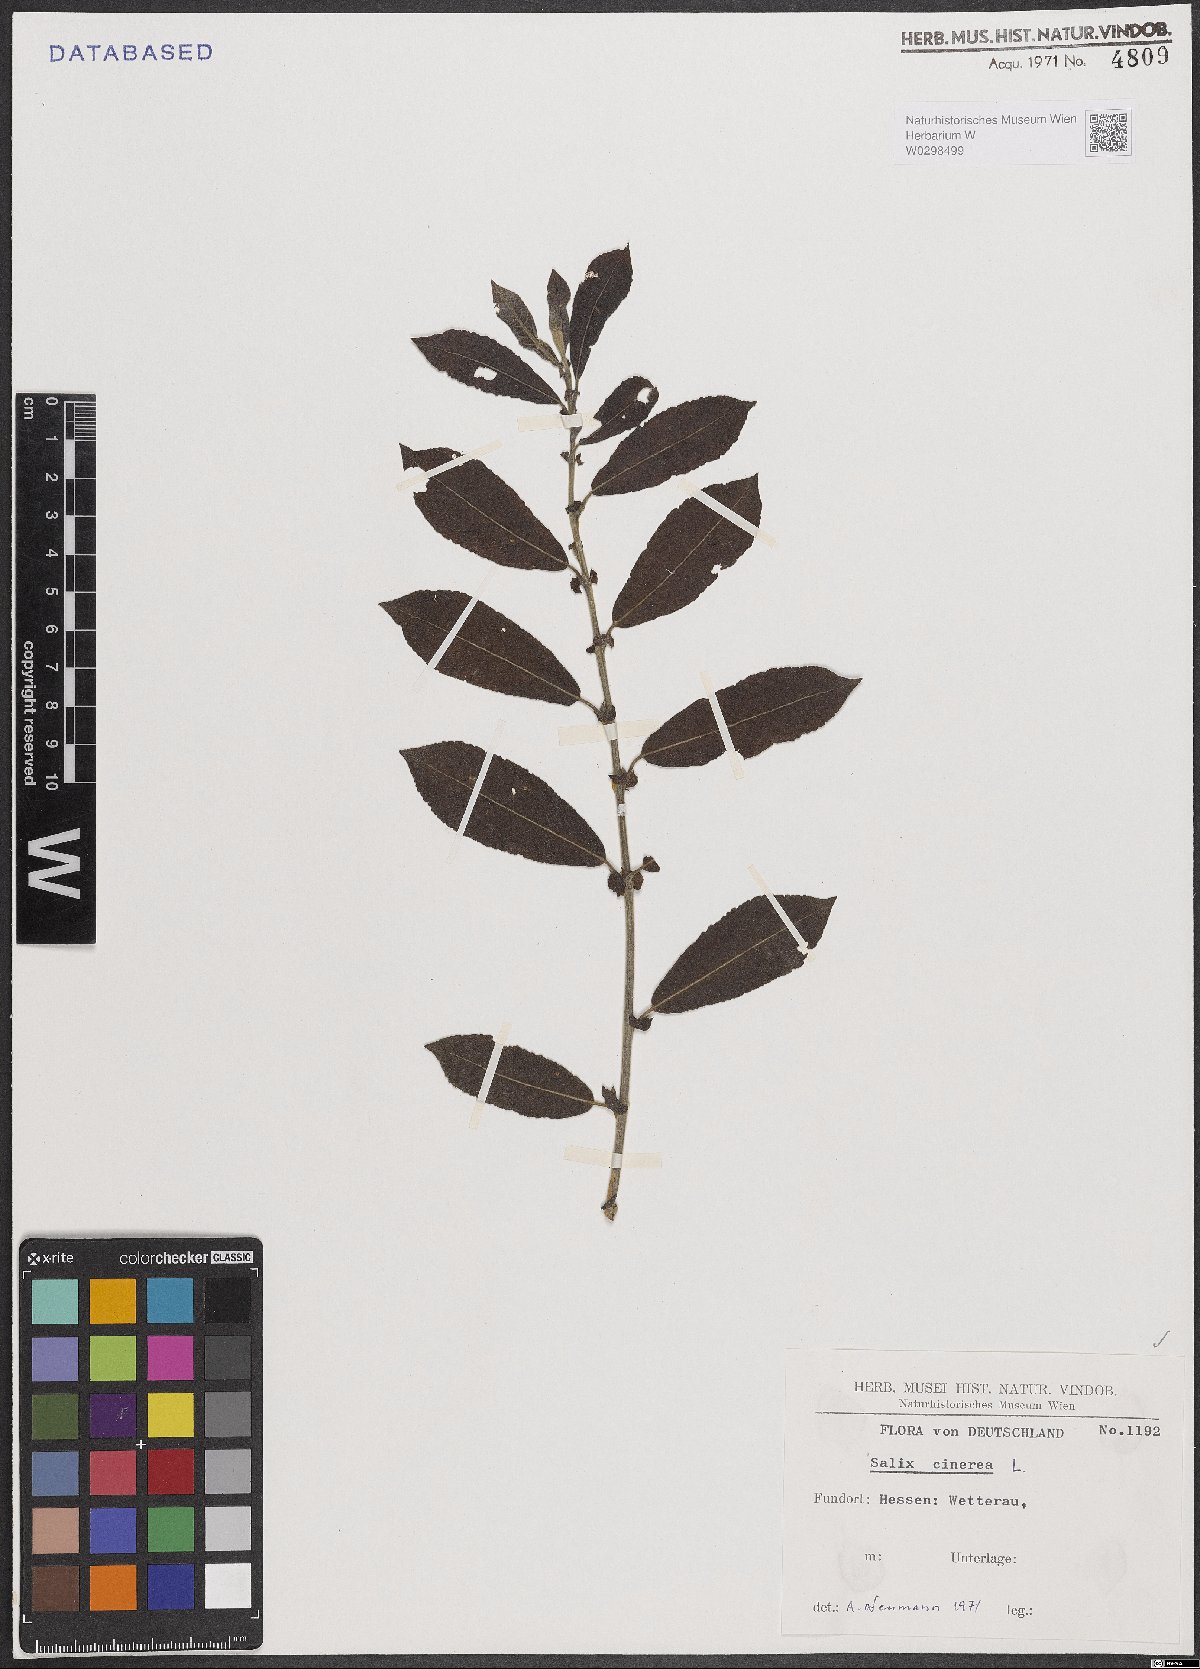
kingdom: Plantae
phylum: Tracheophyta
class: Magnoliopsida
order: Malpighiales
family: Salicaceae
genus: Salix
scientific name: Salix cinerea
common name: Common sallow
